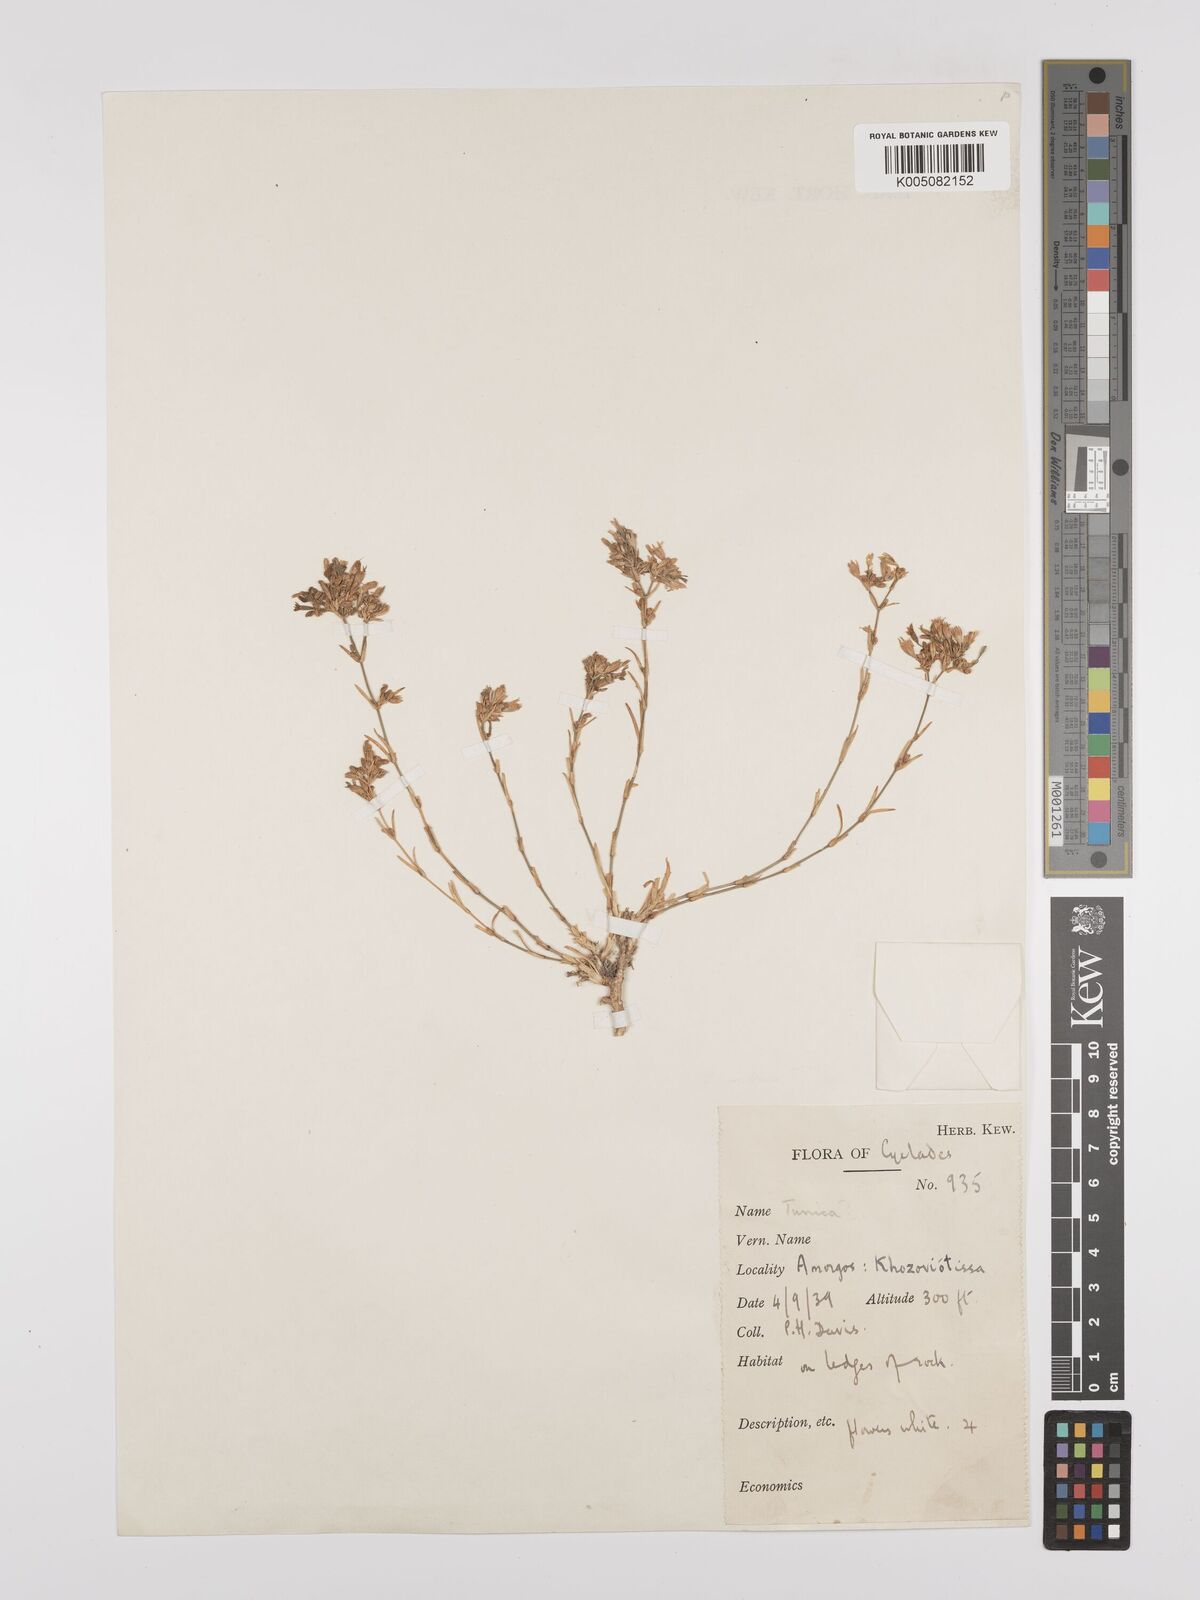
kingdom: Plantae
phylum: Tracheophyta
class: Magnoliopsida
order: Caryophyllales
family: Caryophyllaceae
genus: Dianthus
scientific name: Dianthus tunicoides
